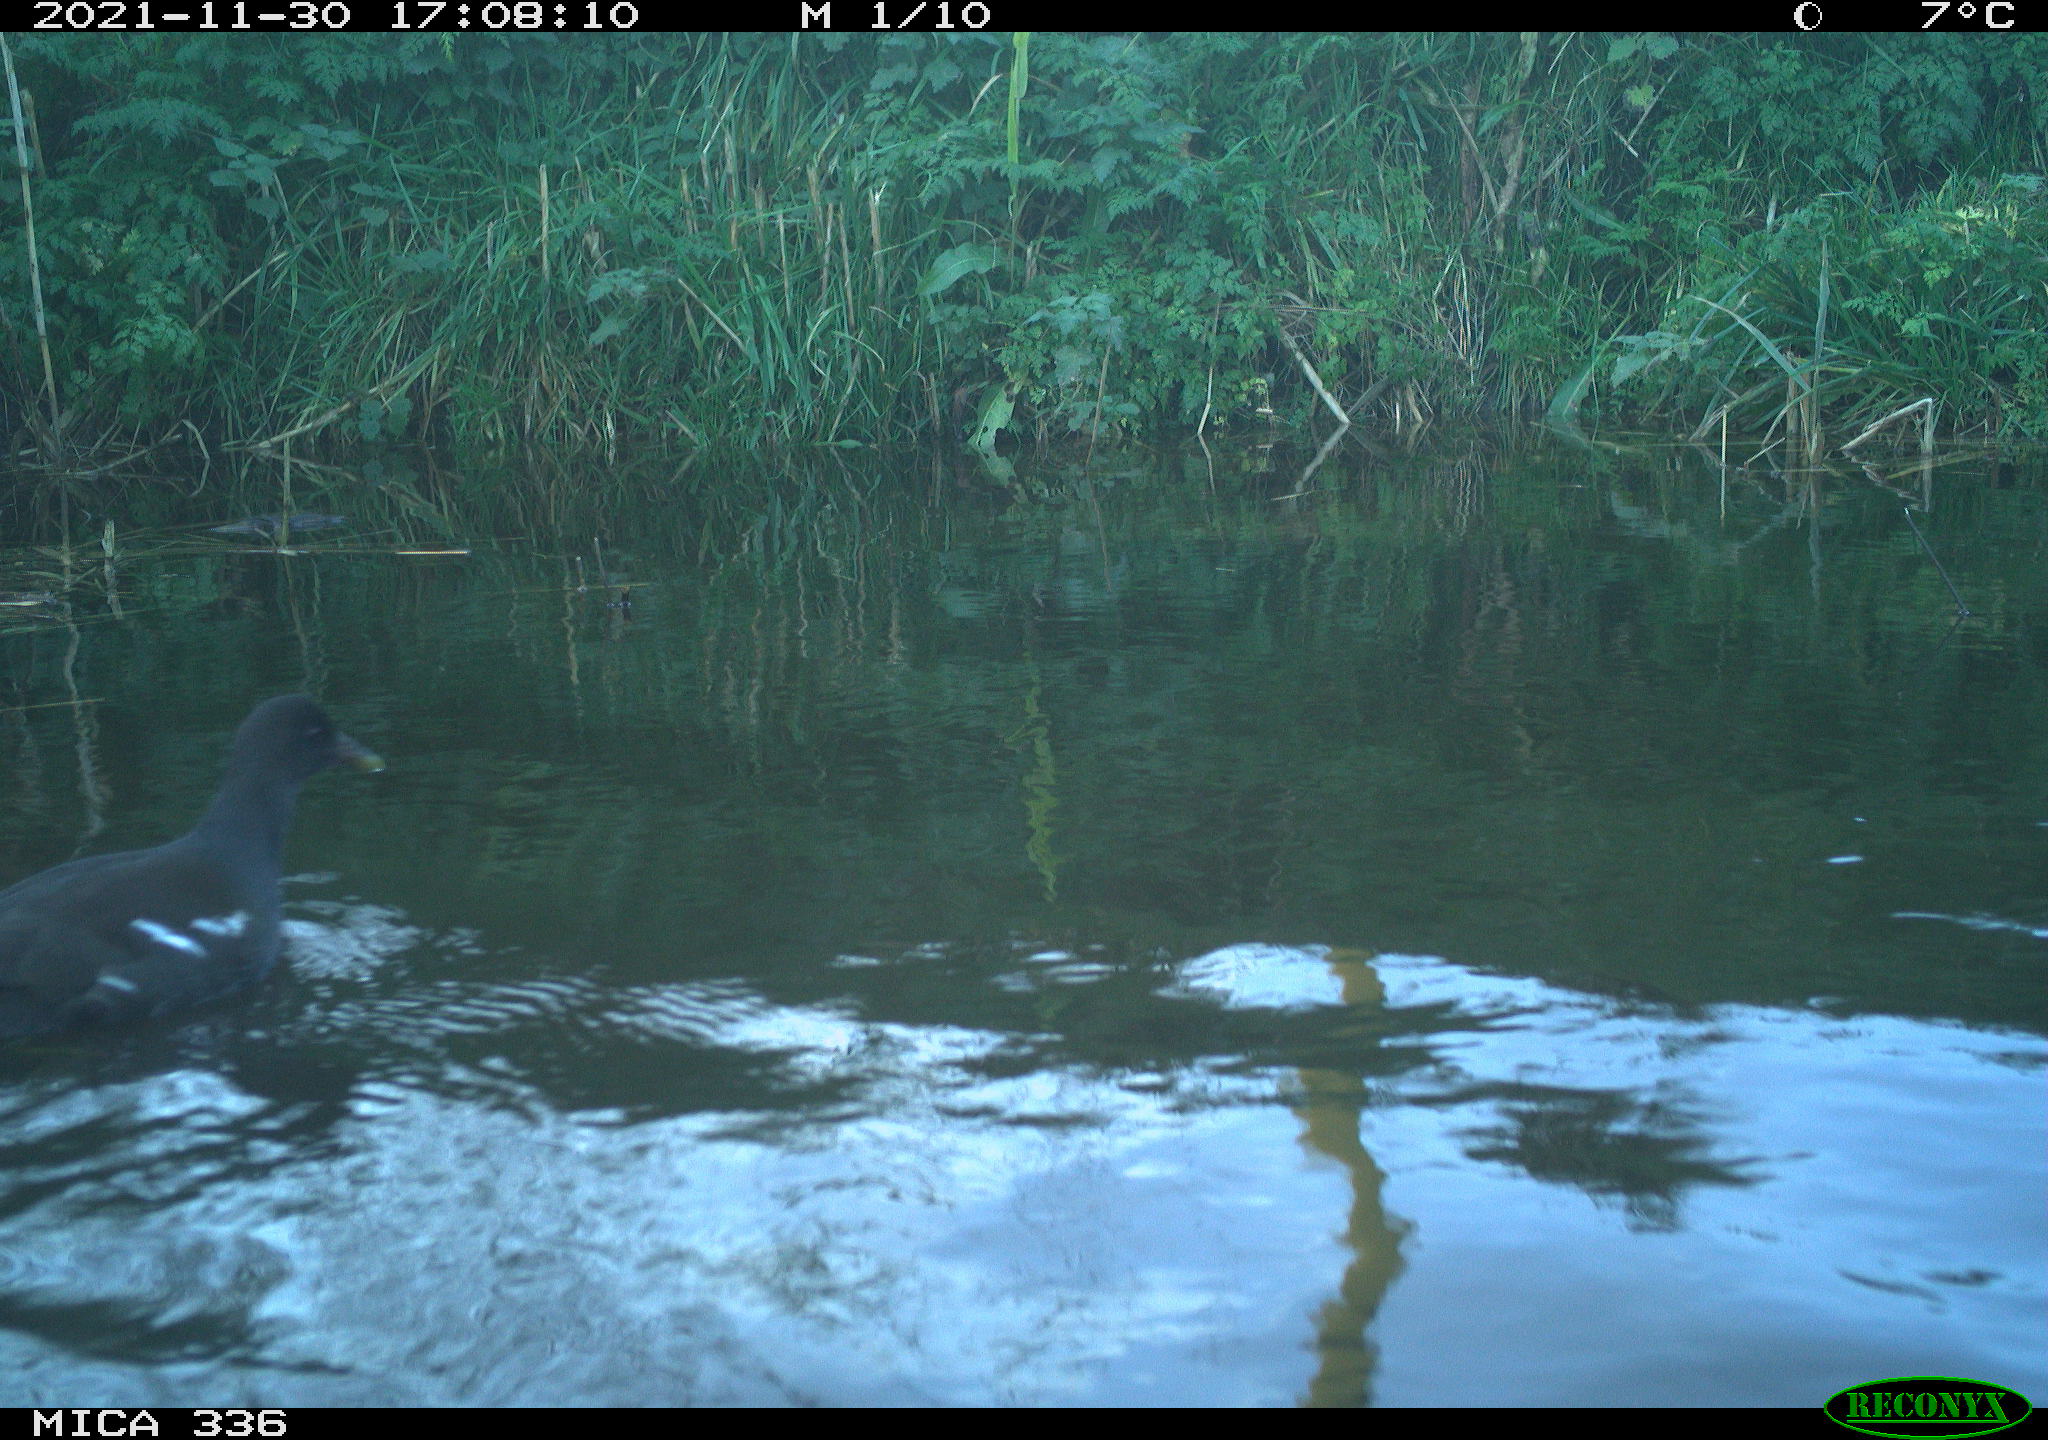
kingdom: Animalia
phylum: Chordata
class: Aves
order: Gruiformes
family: Rallidae
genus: Gallinula
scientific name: Gallinula chloropus
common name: Common moorhen
